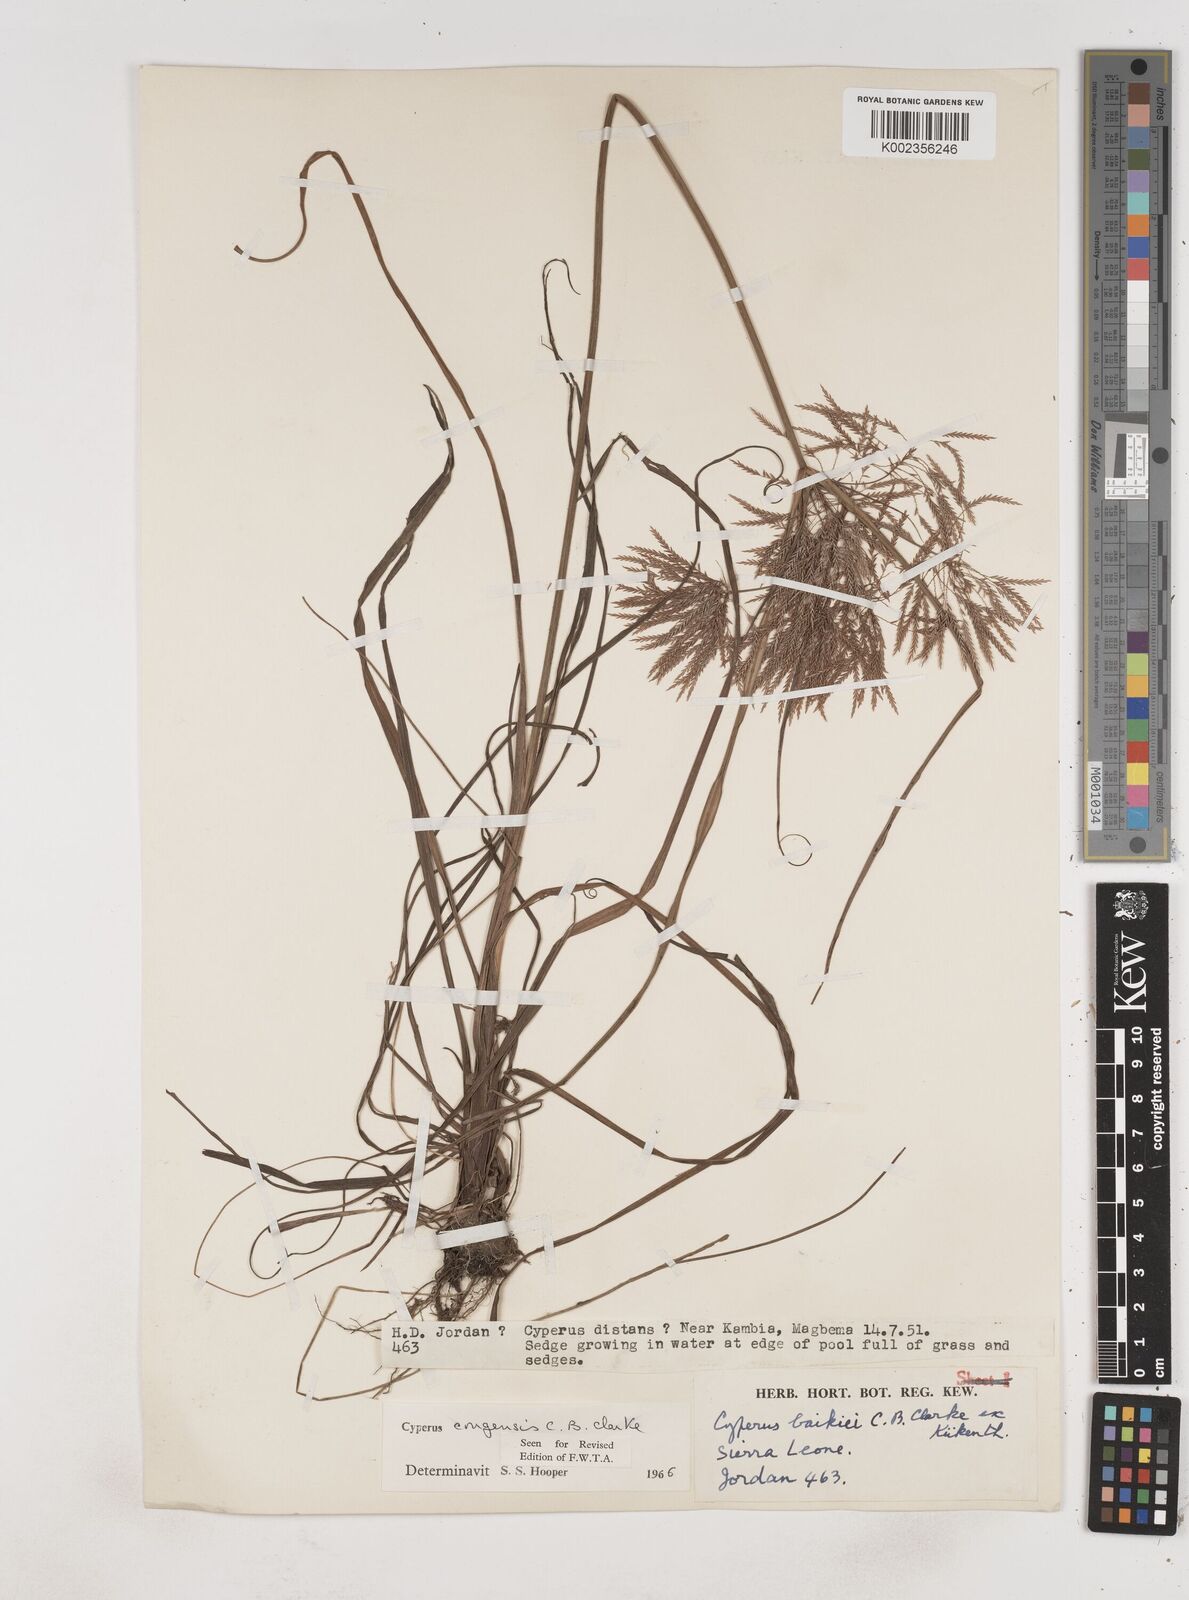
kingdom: Plantae
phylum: Tracheophyta
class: Liliopsida
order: Poales
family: Cyperaceae
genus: Cyperus
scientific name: Cyperus congensis
